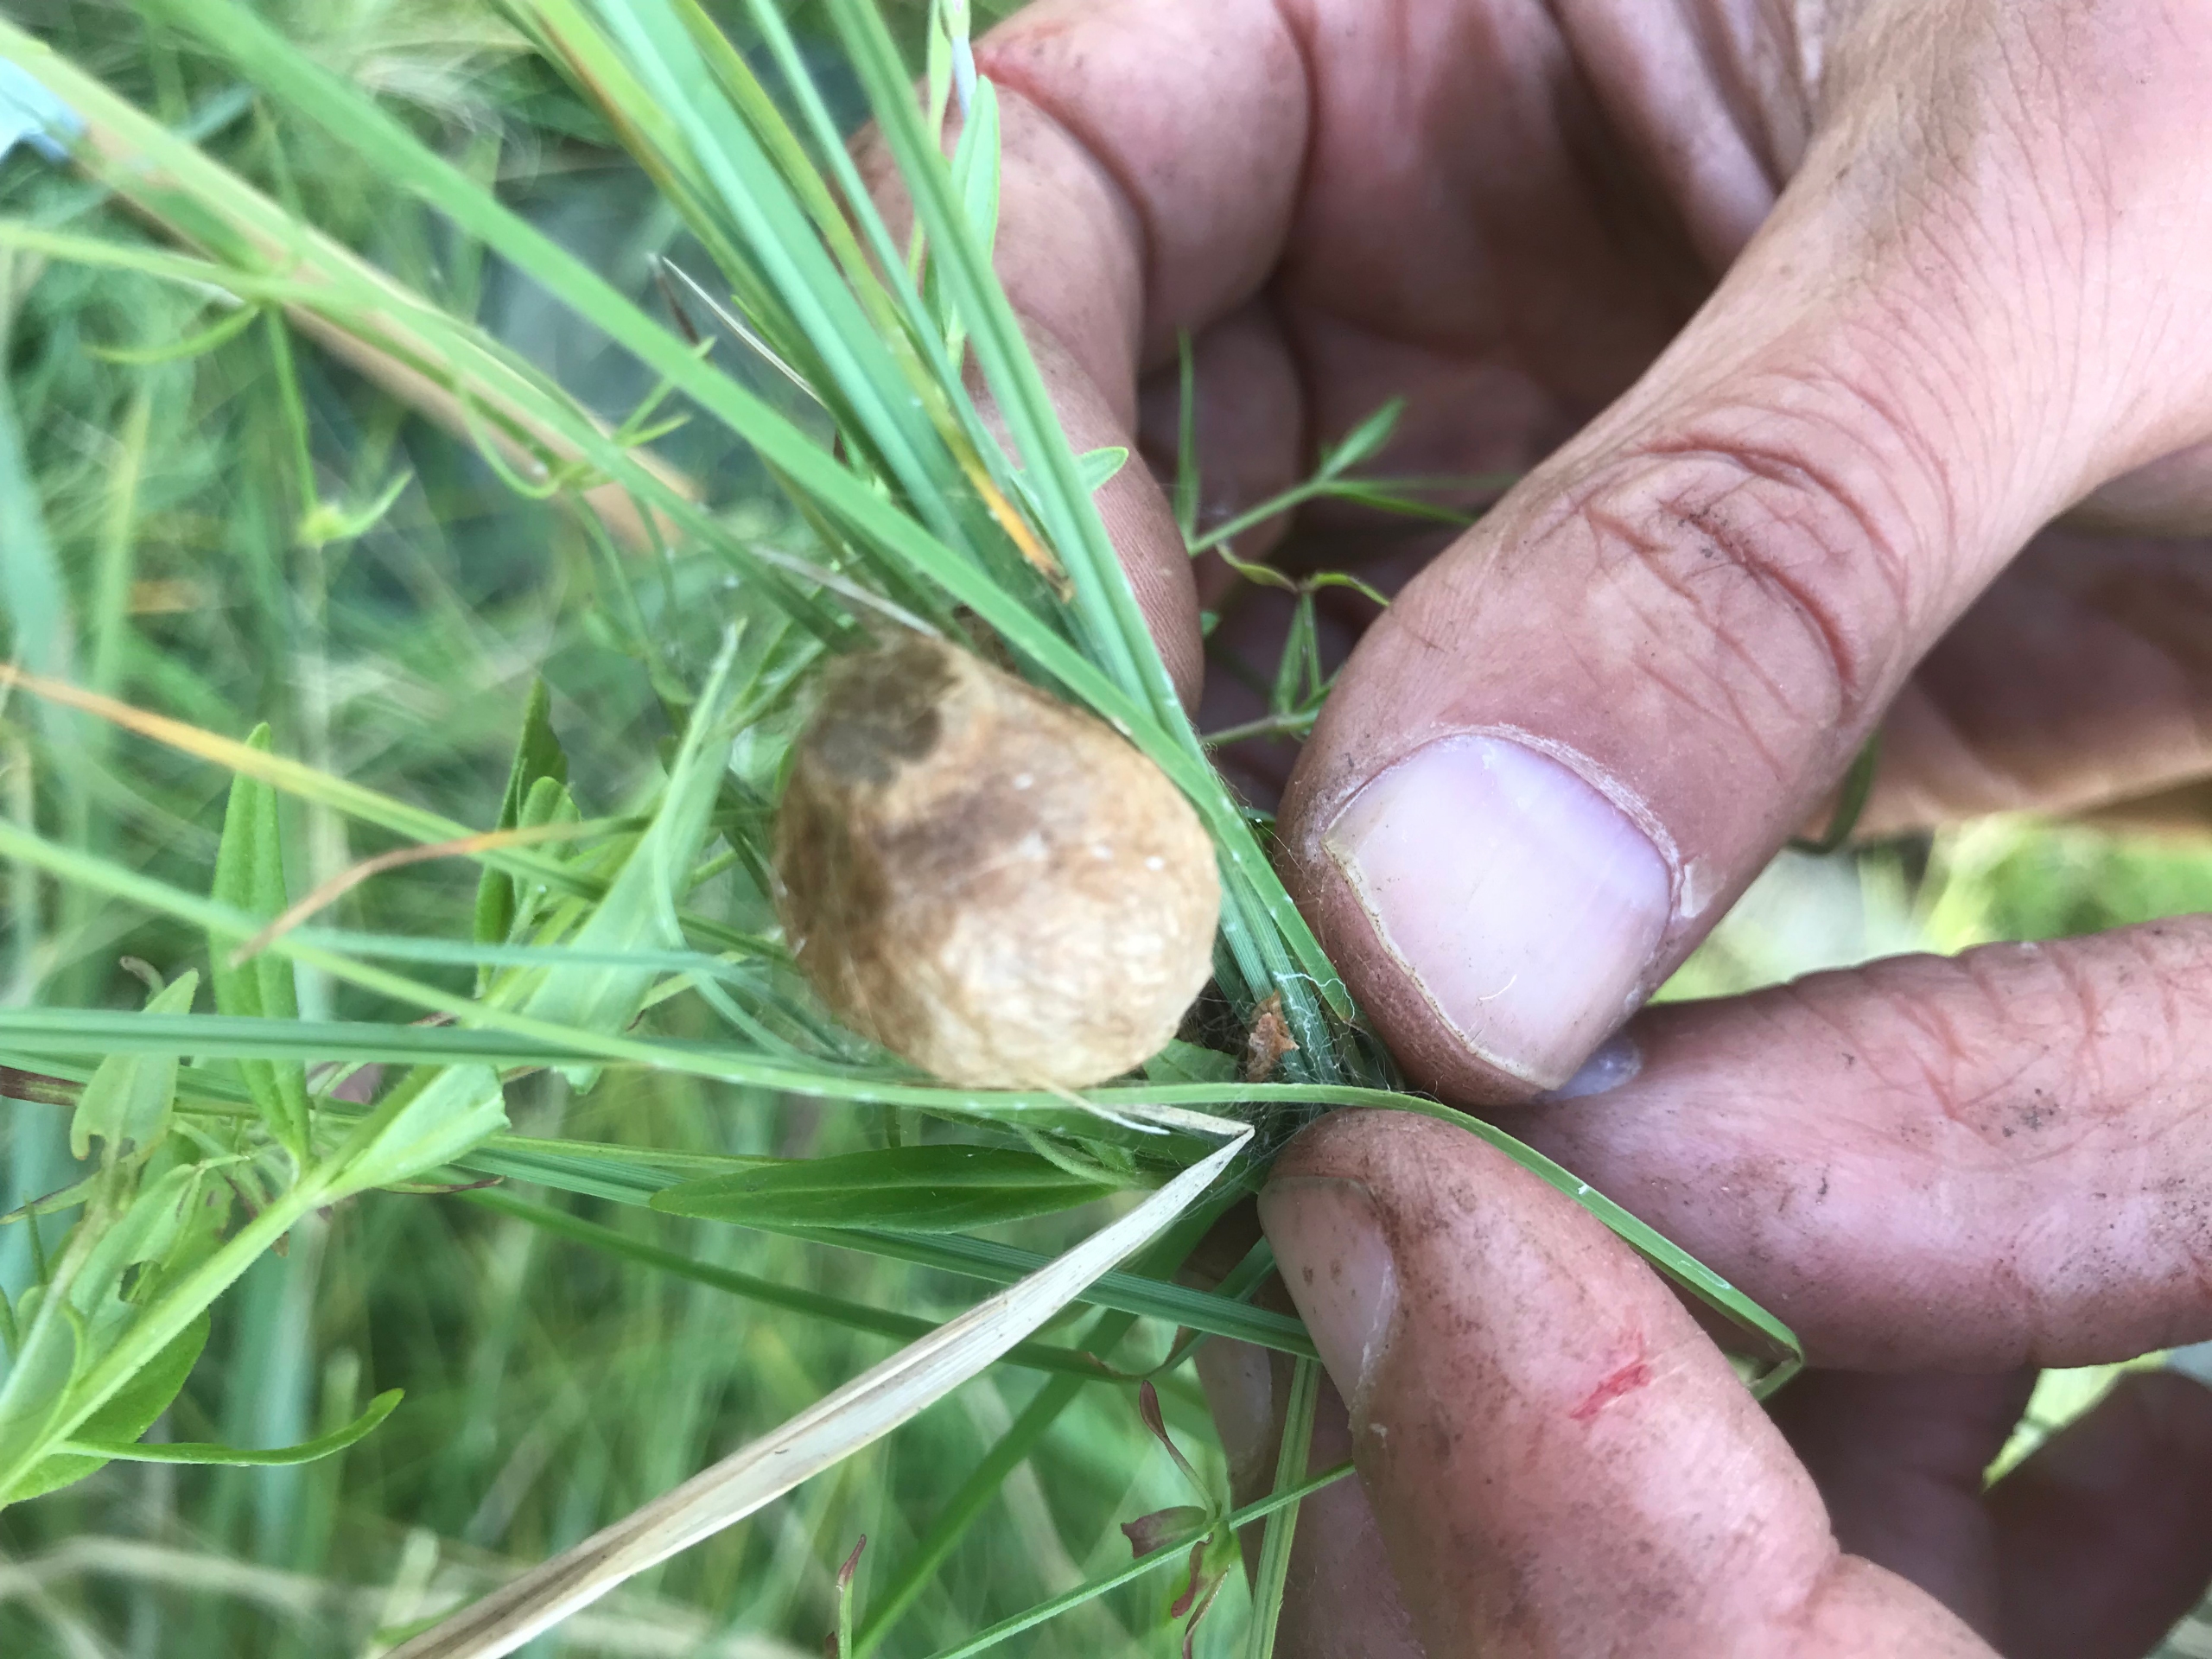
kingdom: Animalia
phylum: Arthropoda
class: Arachnida
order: Araneae
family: Araneidae
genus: Argiope
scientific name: Argiope bruennichi
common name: Hvepseedderkop
